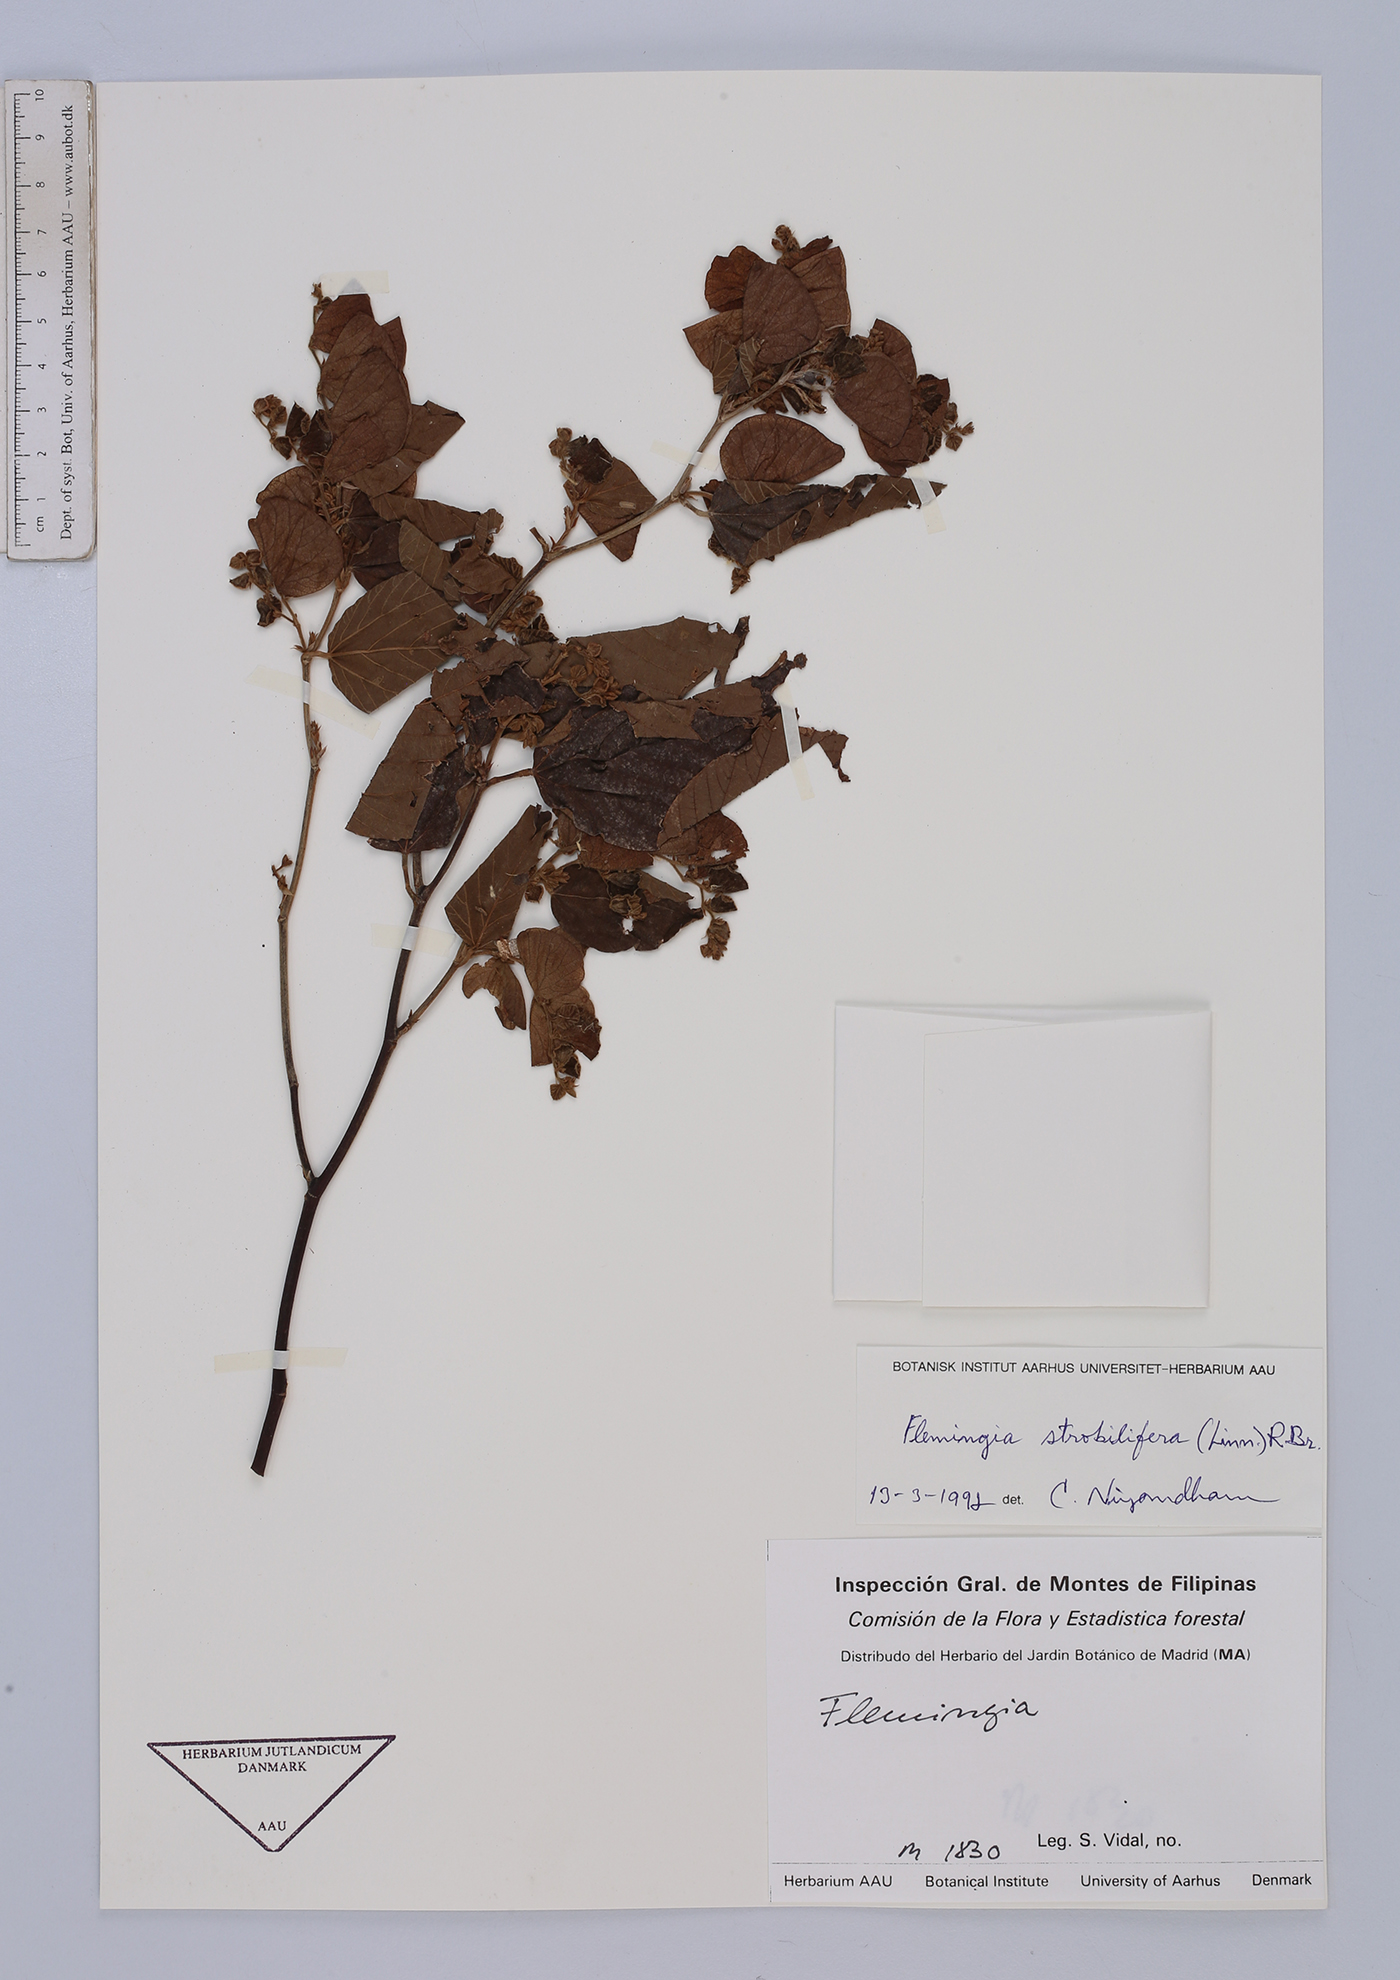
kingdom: Plantae
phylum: Tracheophyta
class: Magnoliopsida
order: Fabales
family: Fabaceae
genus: Flemingia
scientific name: Flemingia strobilifera
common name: Wild hops
